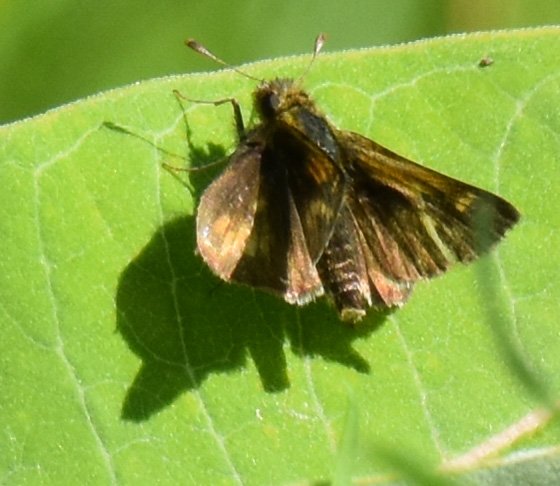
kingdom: Animalia
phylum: Arthropoda
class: Insecta
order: Lepidoptera
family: Hesperiidae
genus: Polites
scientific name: Polites coras
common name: Peck's Skipper
